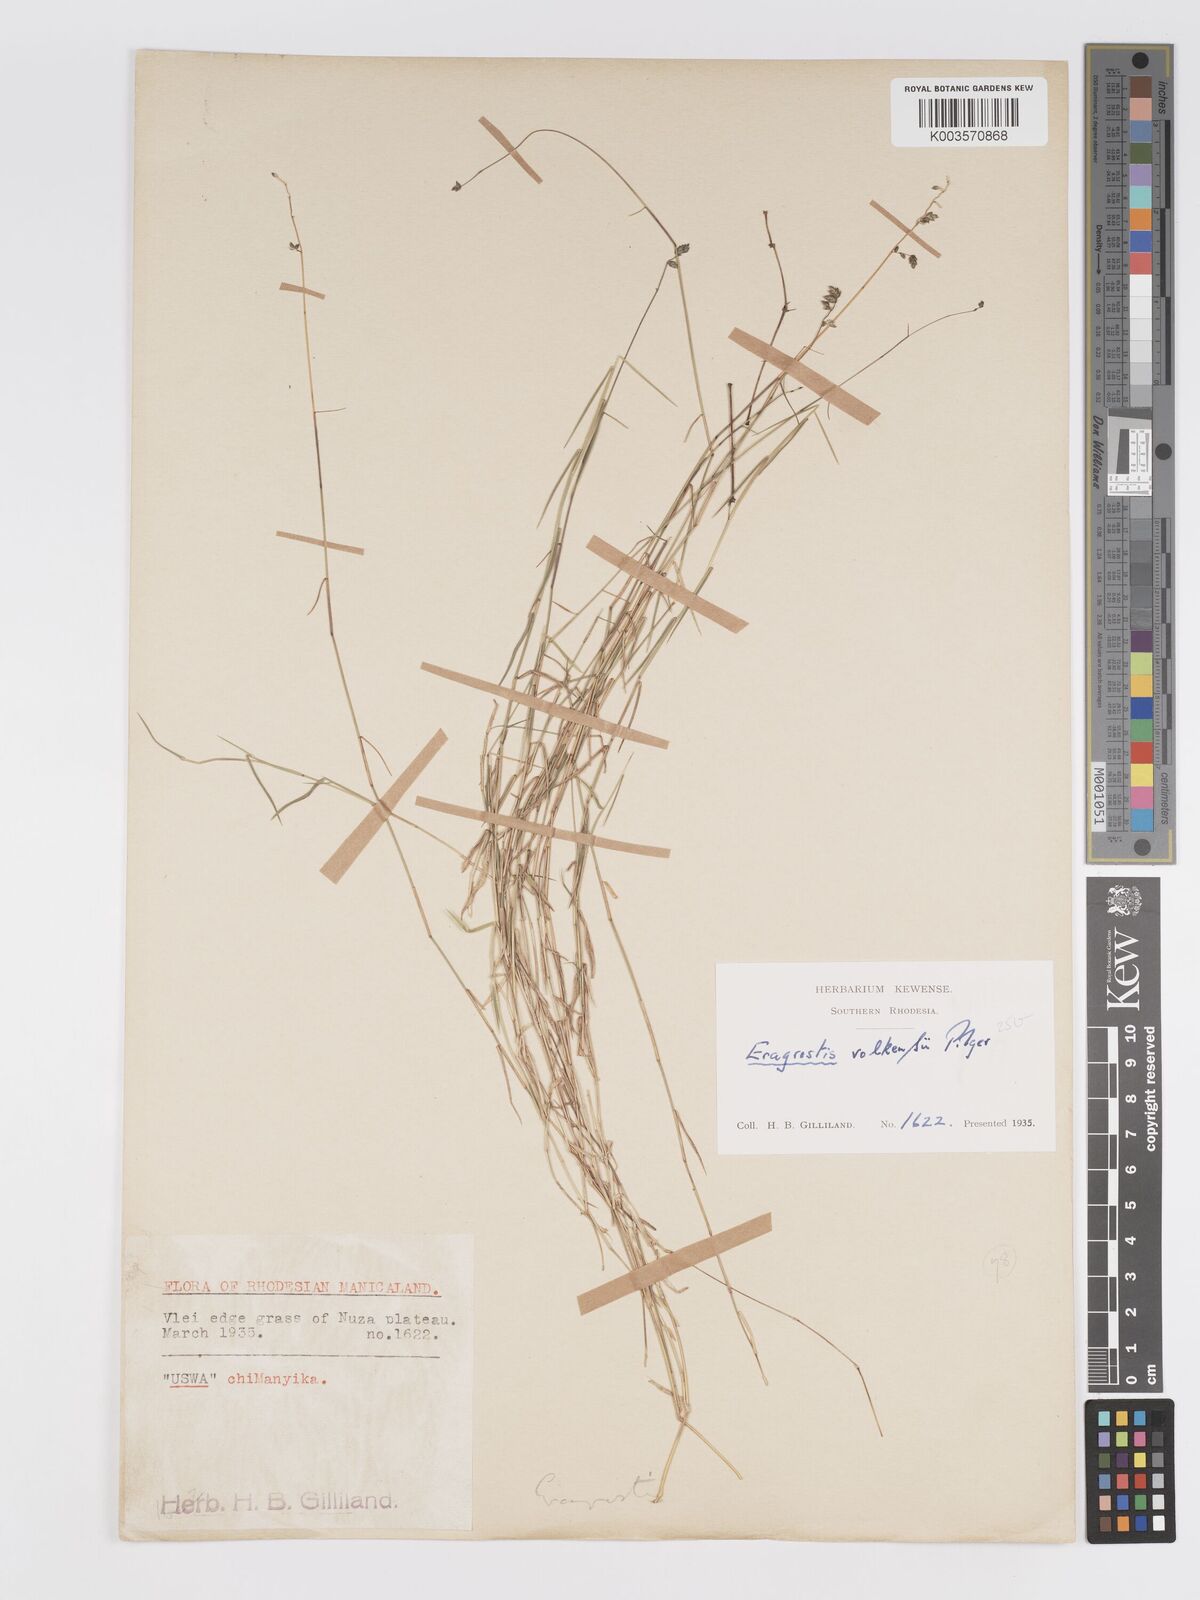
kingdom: Plantae
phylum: Tracheophyta
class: Liliopsida
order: Poales
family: Poaceae
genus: Eragrostis
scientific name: Eragrostis volkensii
